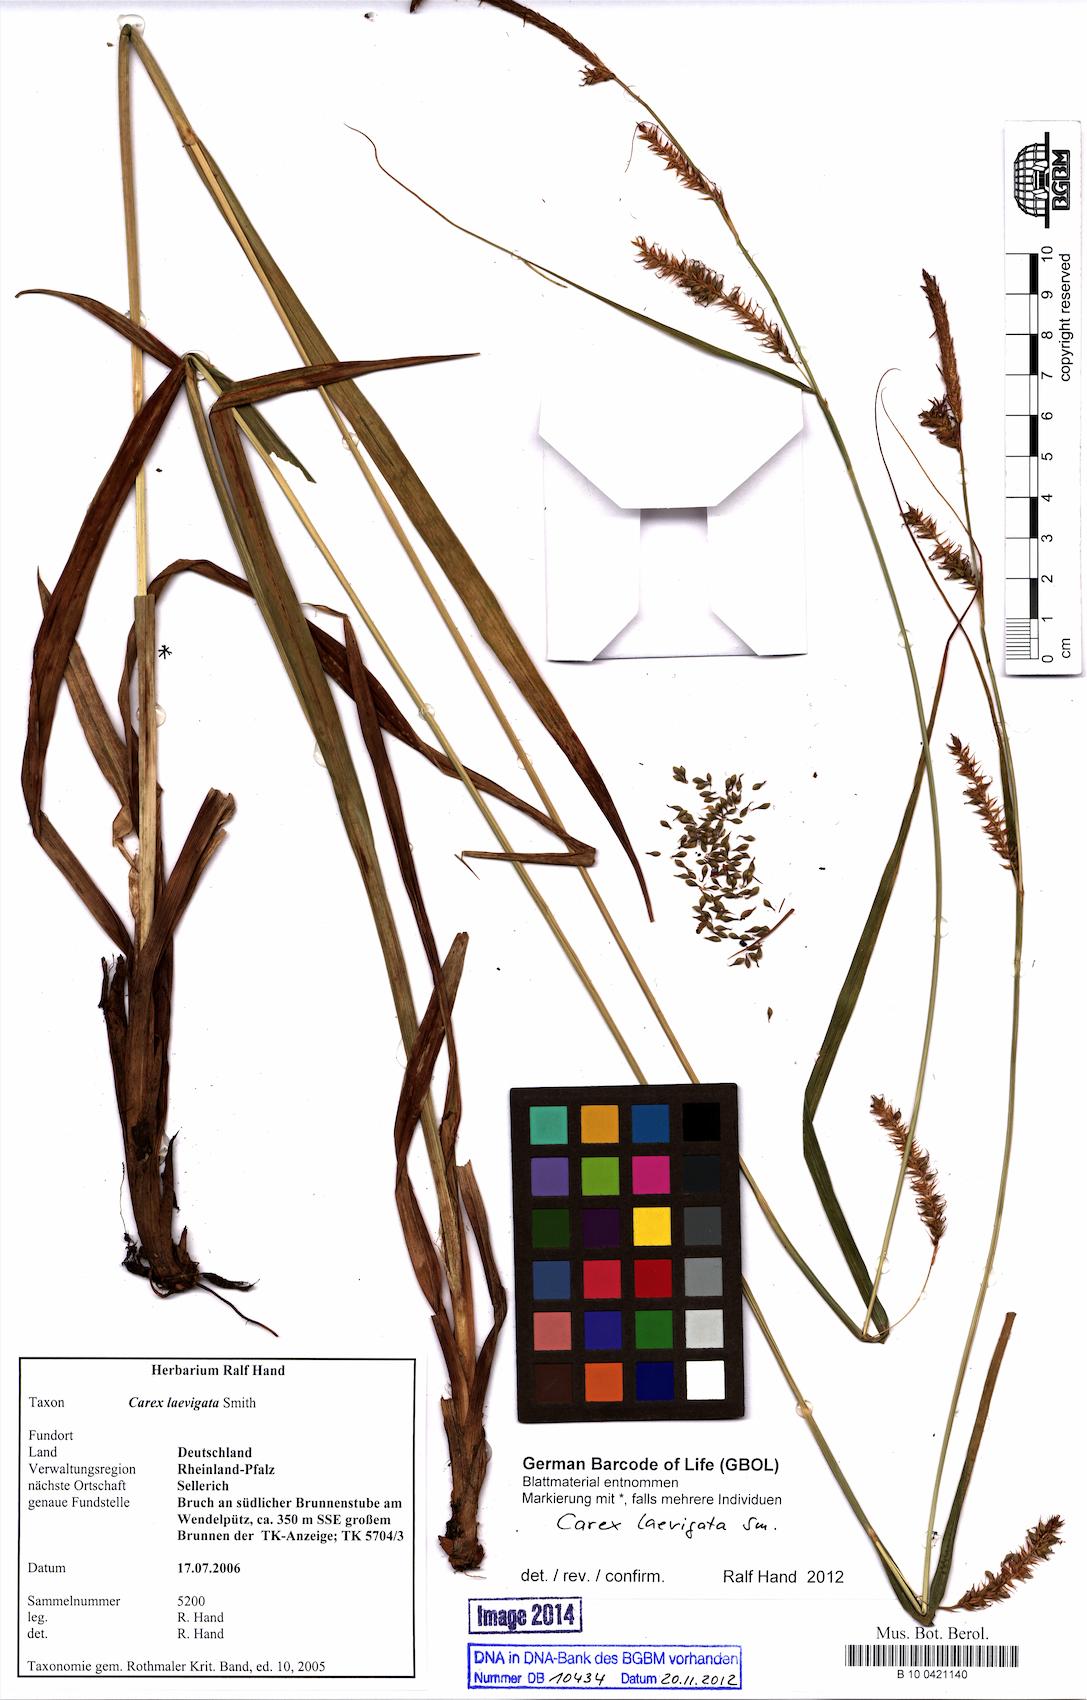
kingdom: Plantae
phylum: Tracheophyta
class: Liliopsida
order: Poales
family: Cyperaceae
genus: Carex
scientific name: Carex laevigata
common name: Smooth-stalked sedge
